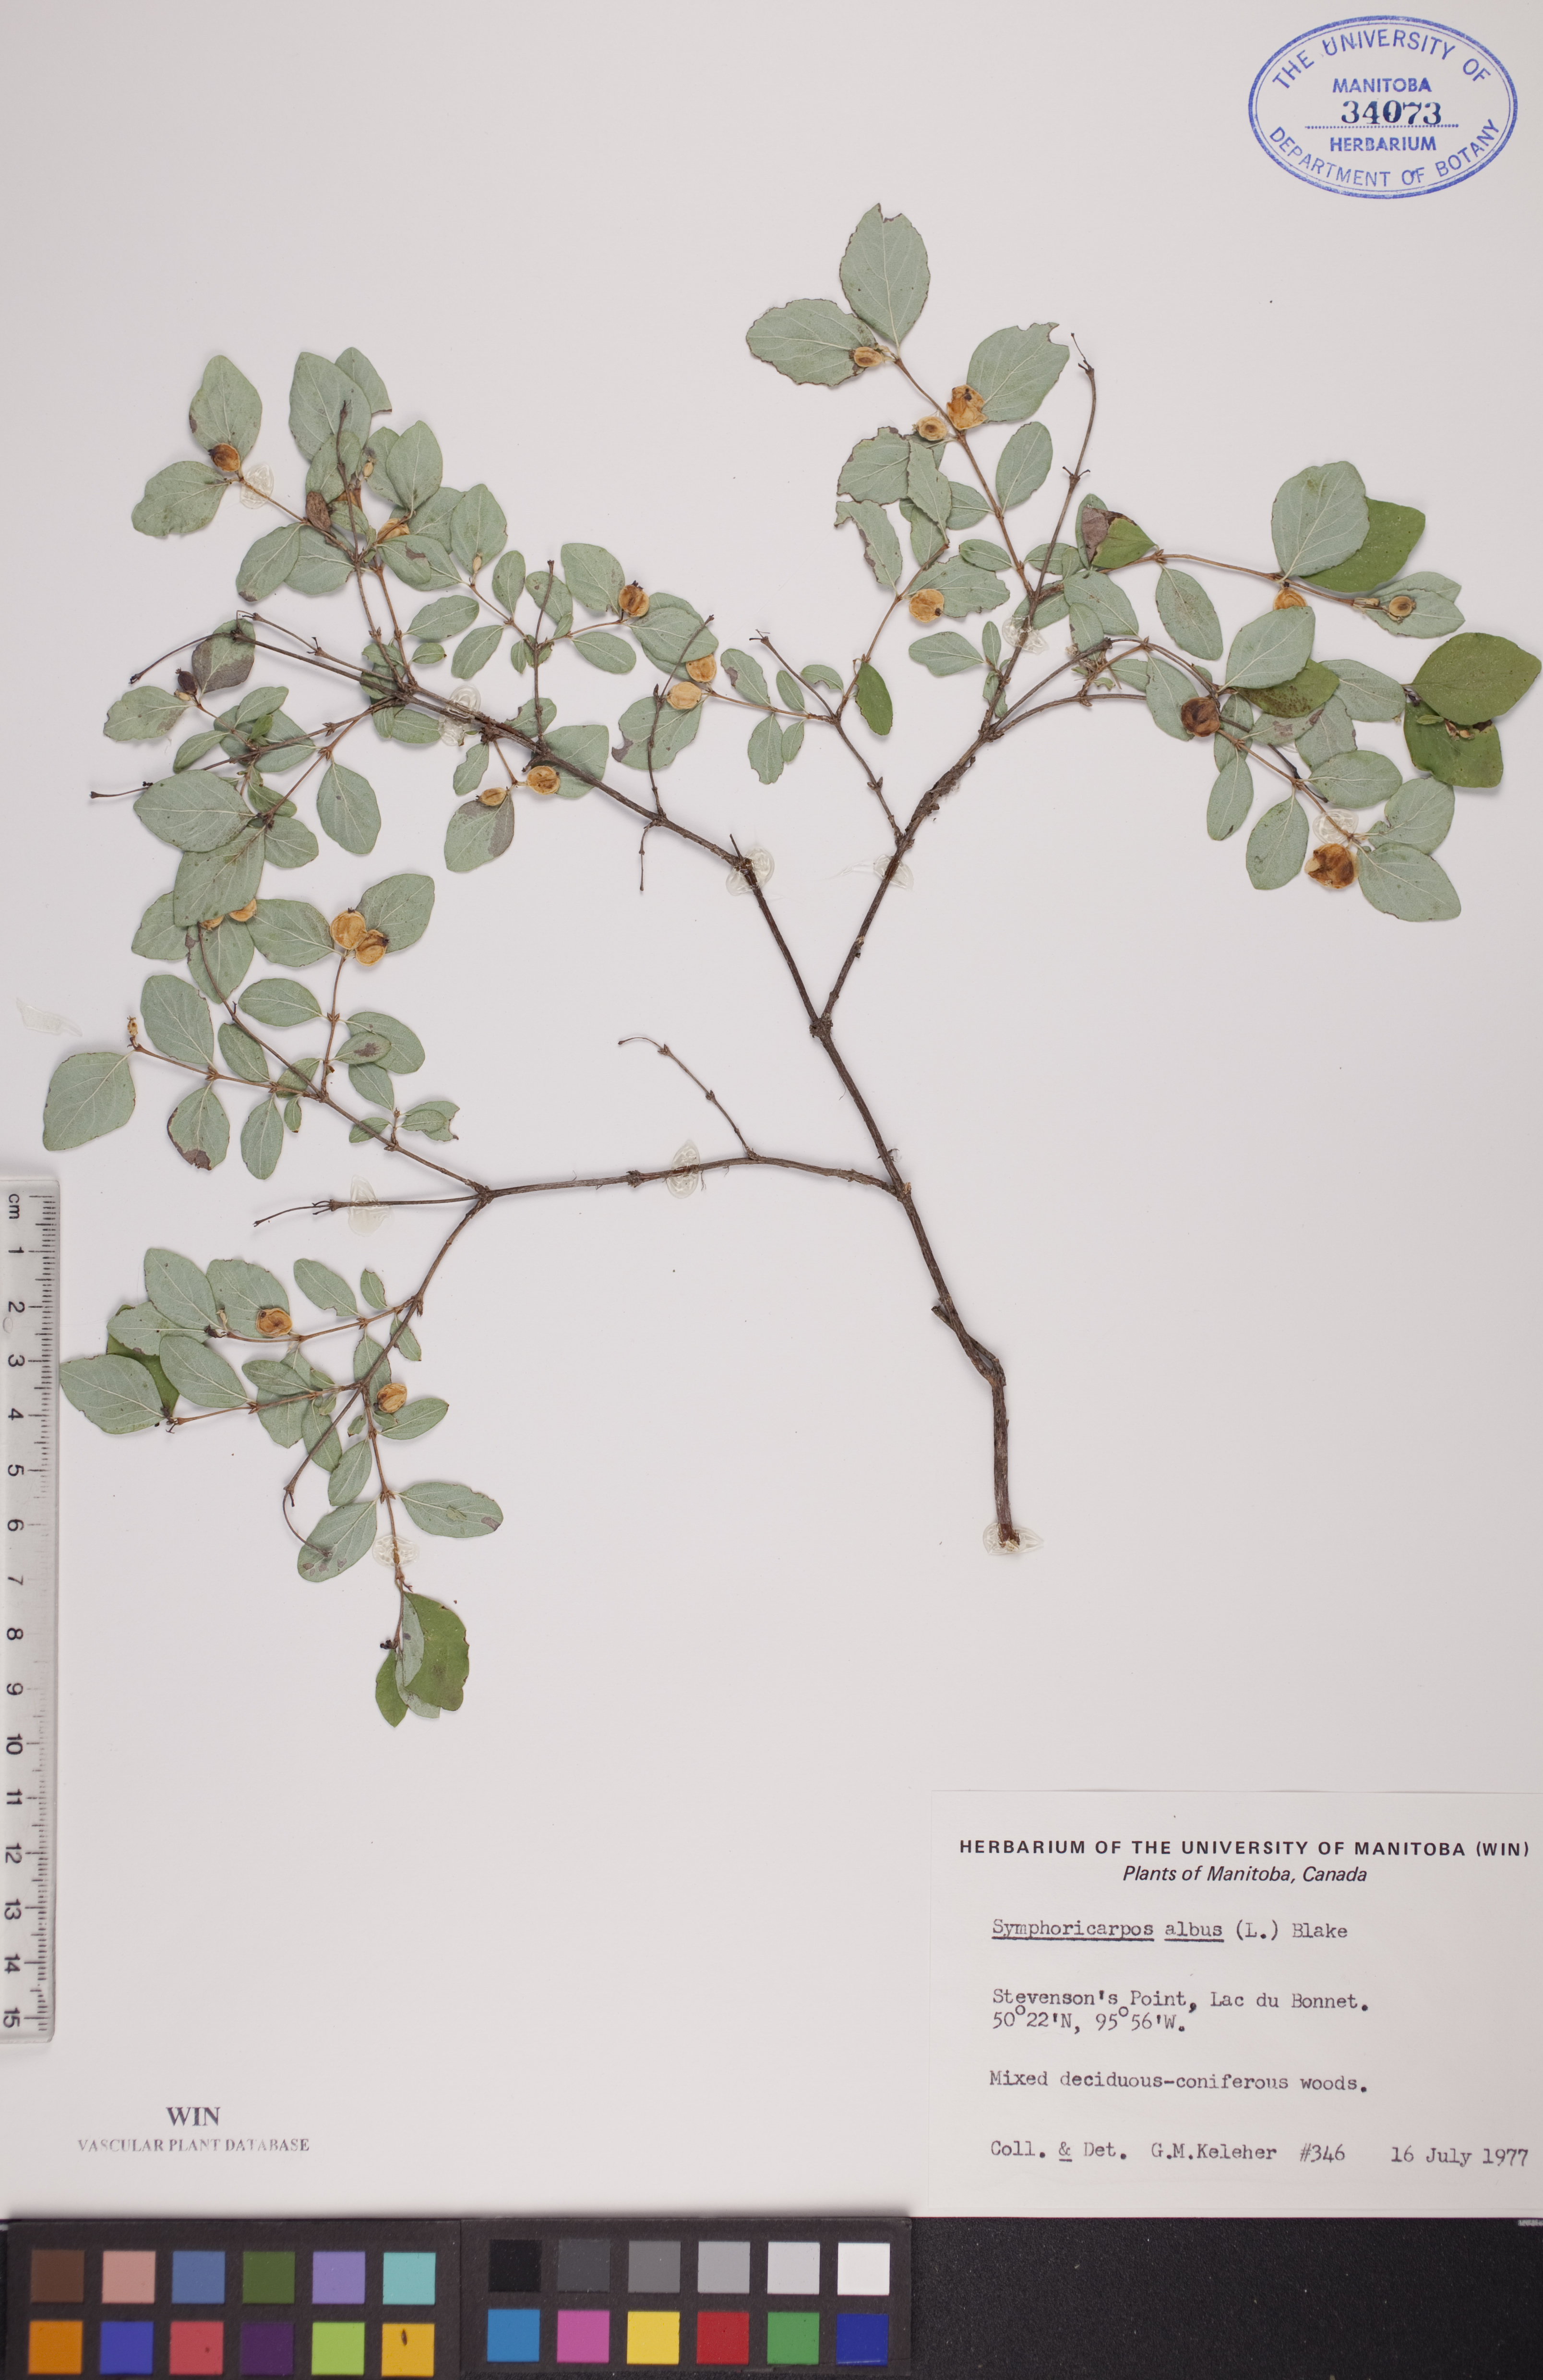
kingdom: Plantae
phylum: Tracheophyta
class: Magnoliopsida
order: Dipsacales
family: Caprifoliaceae
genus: Symphoricarpos
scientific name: Symphoricarpos albus
